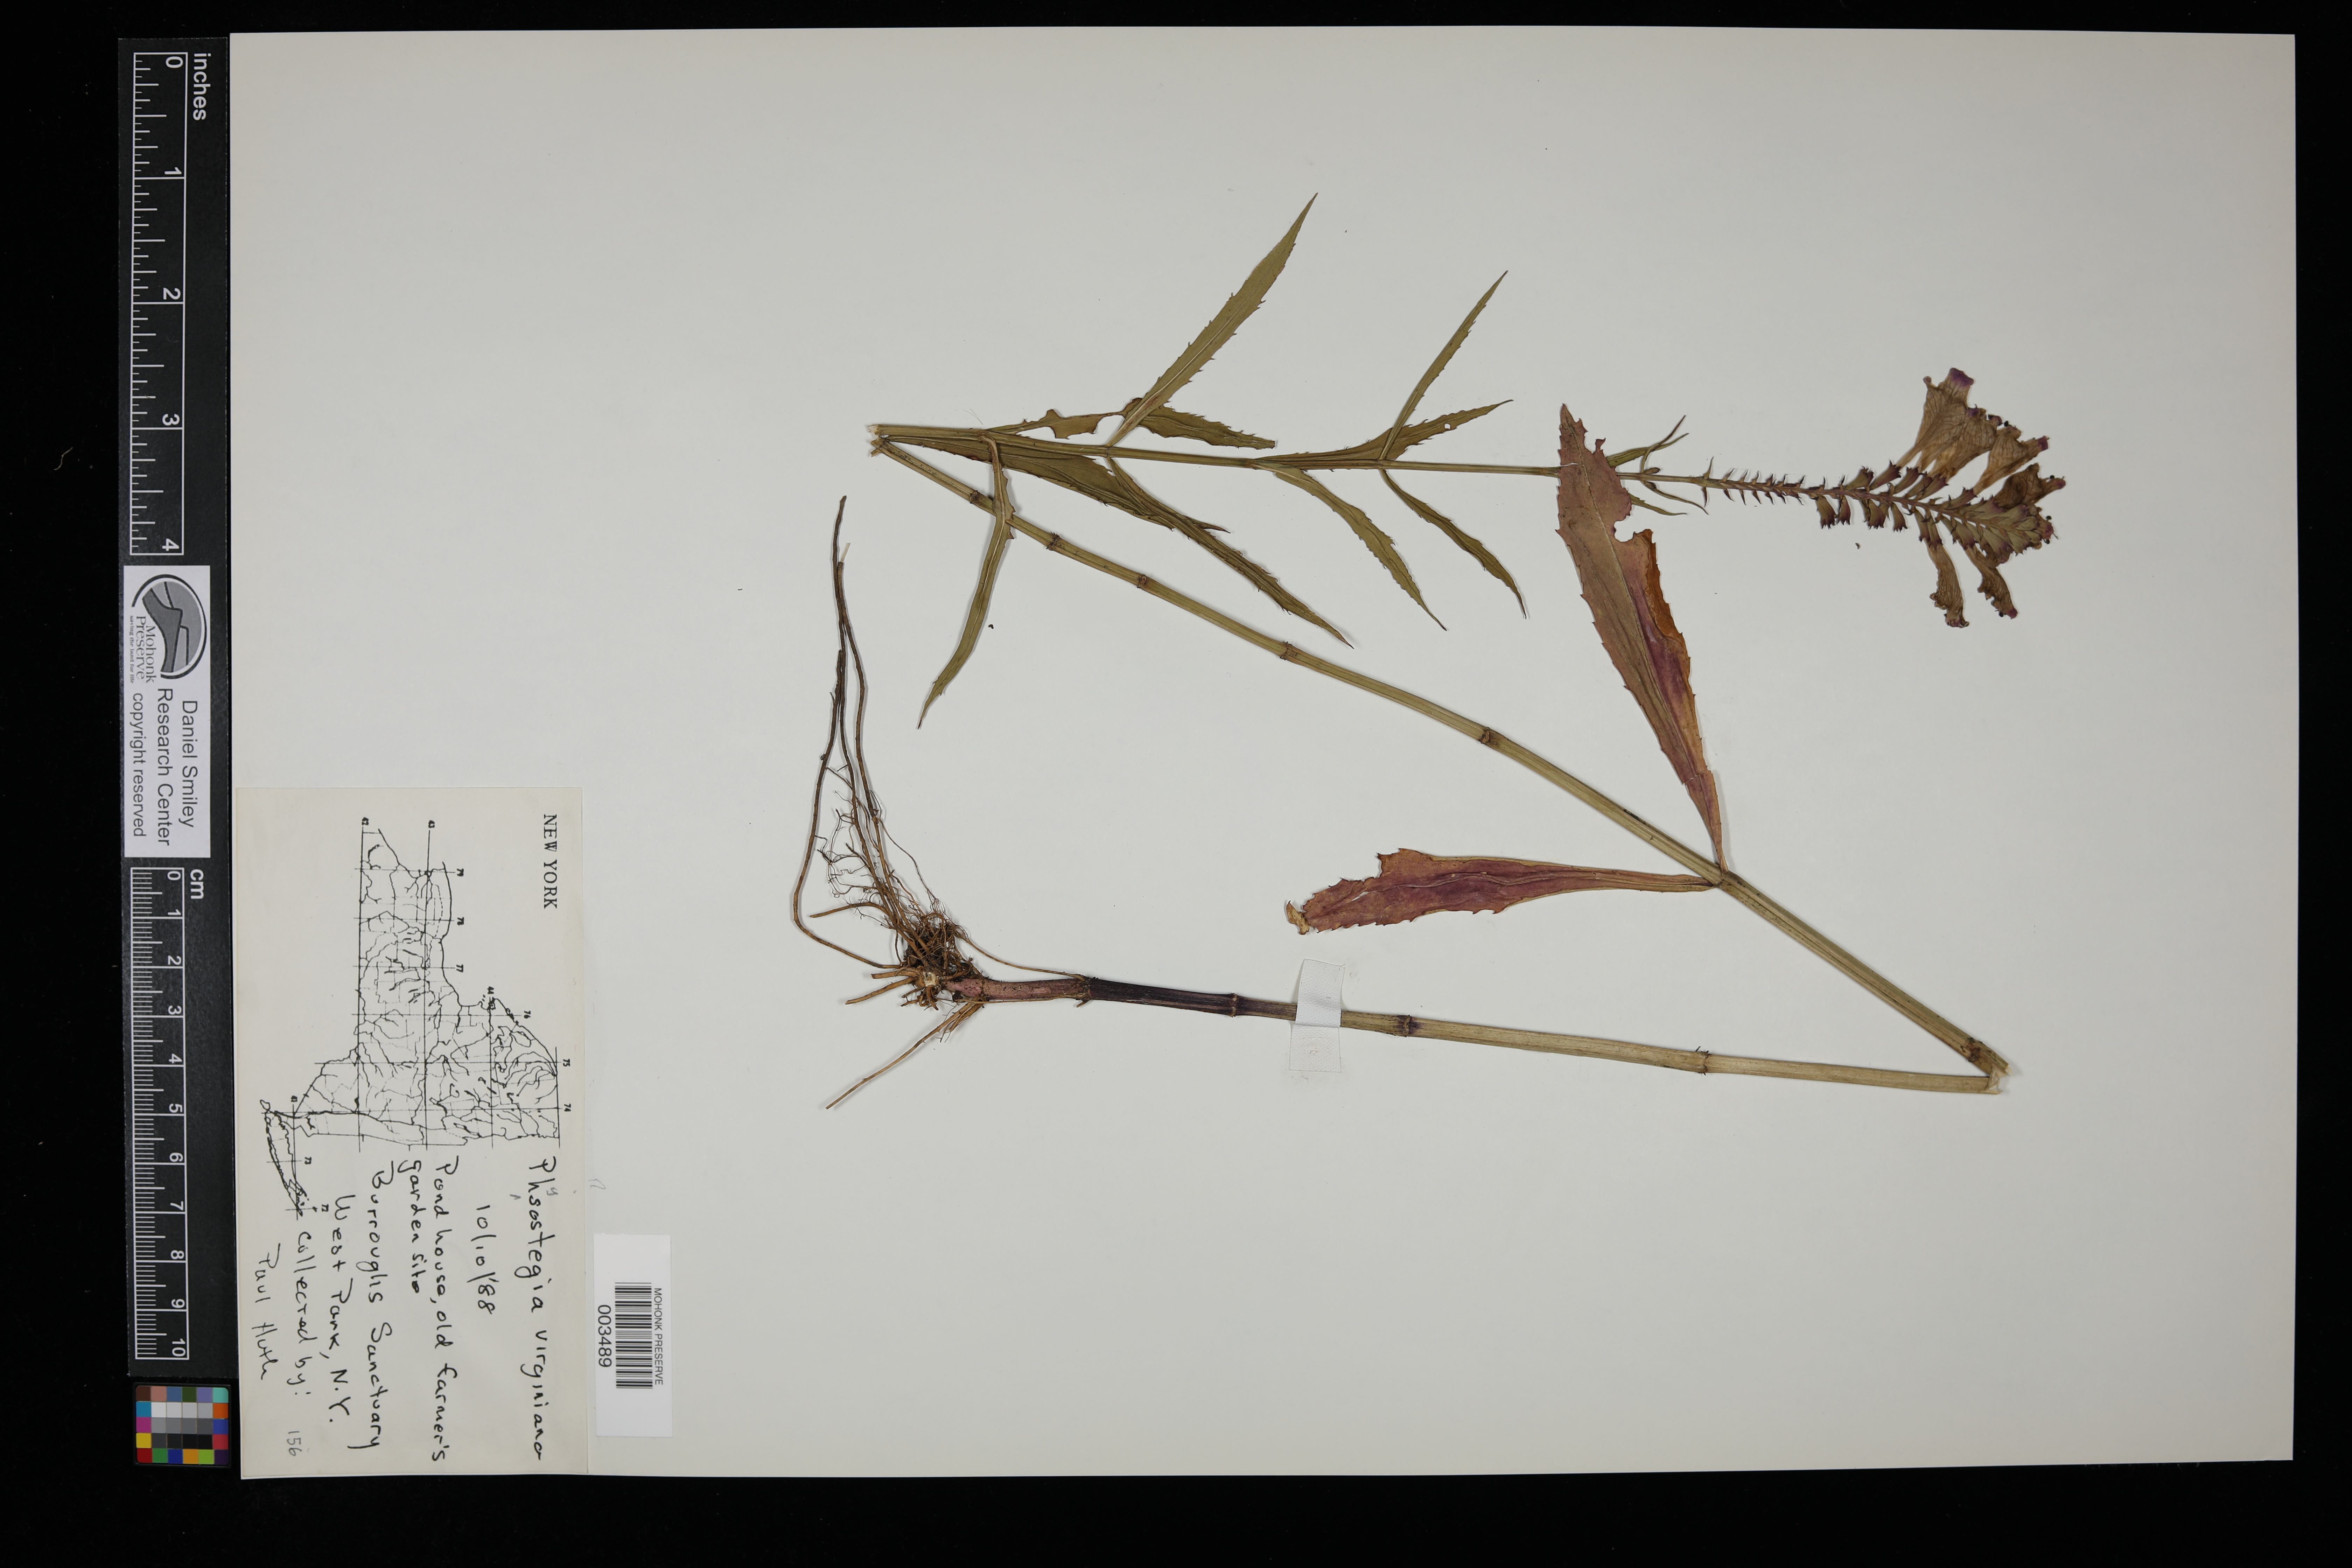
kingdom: Plantae
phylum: Tracheophyta
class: Magnoliopsida
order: Lamiales
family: Lamiaceae
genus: Physostegia
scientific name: Physostegia virginiana
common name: Obedient-plant
